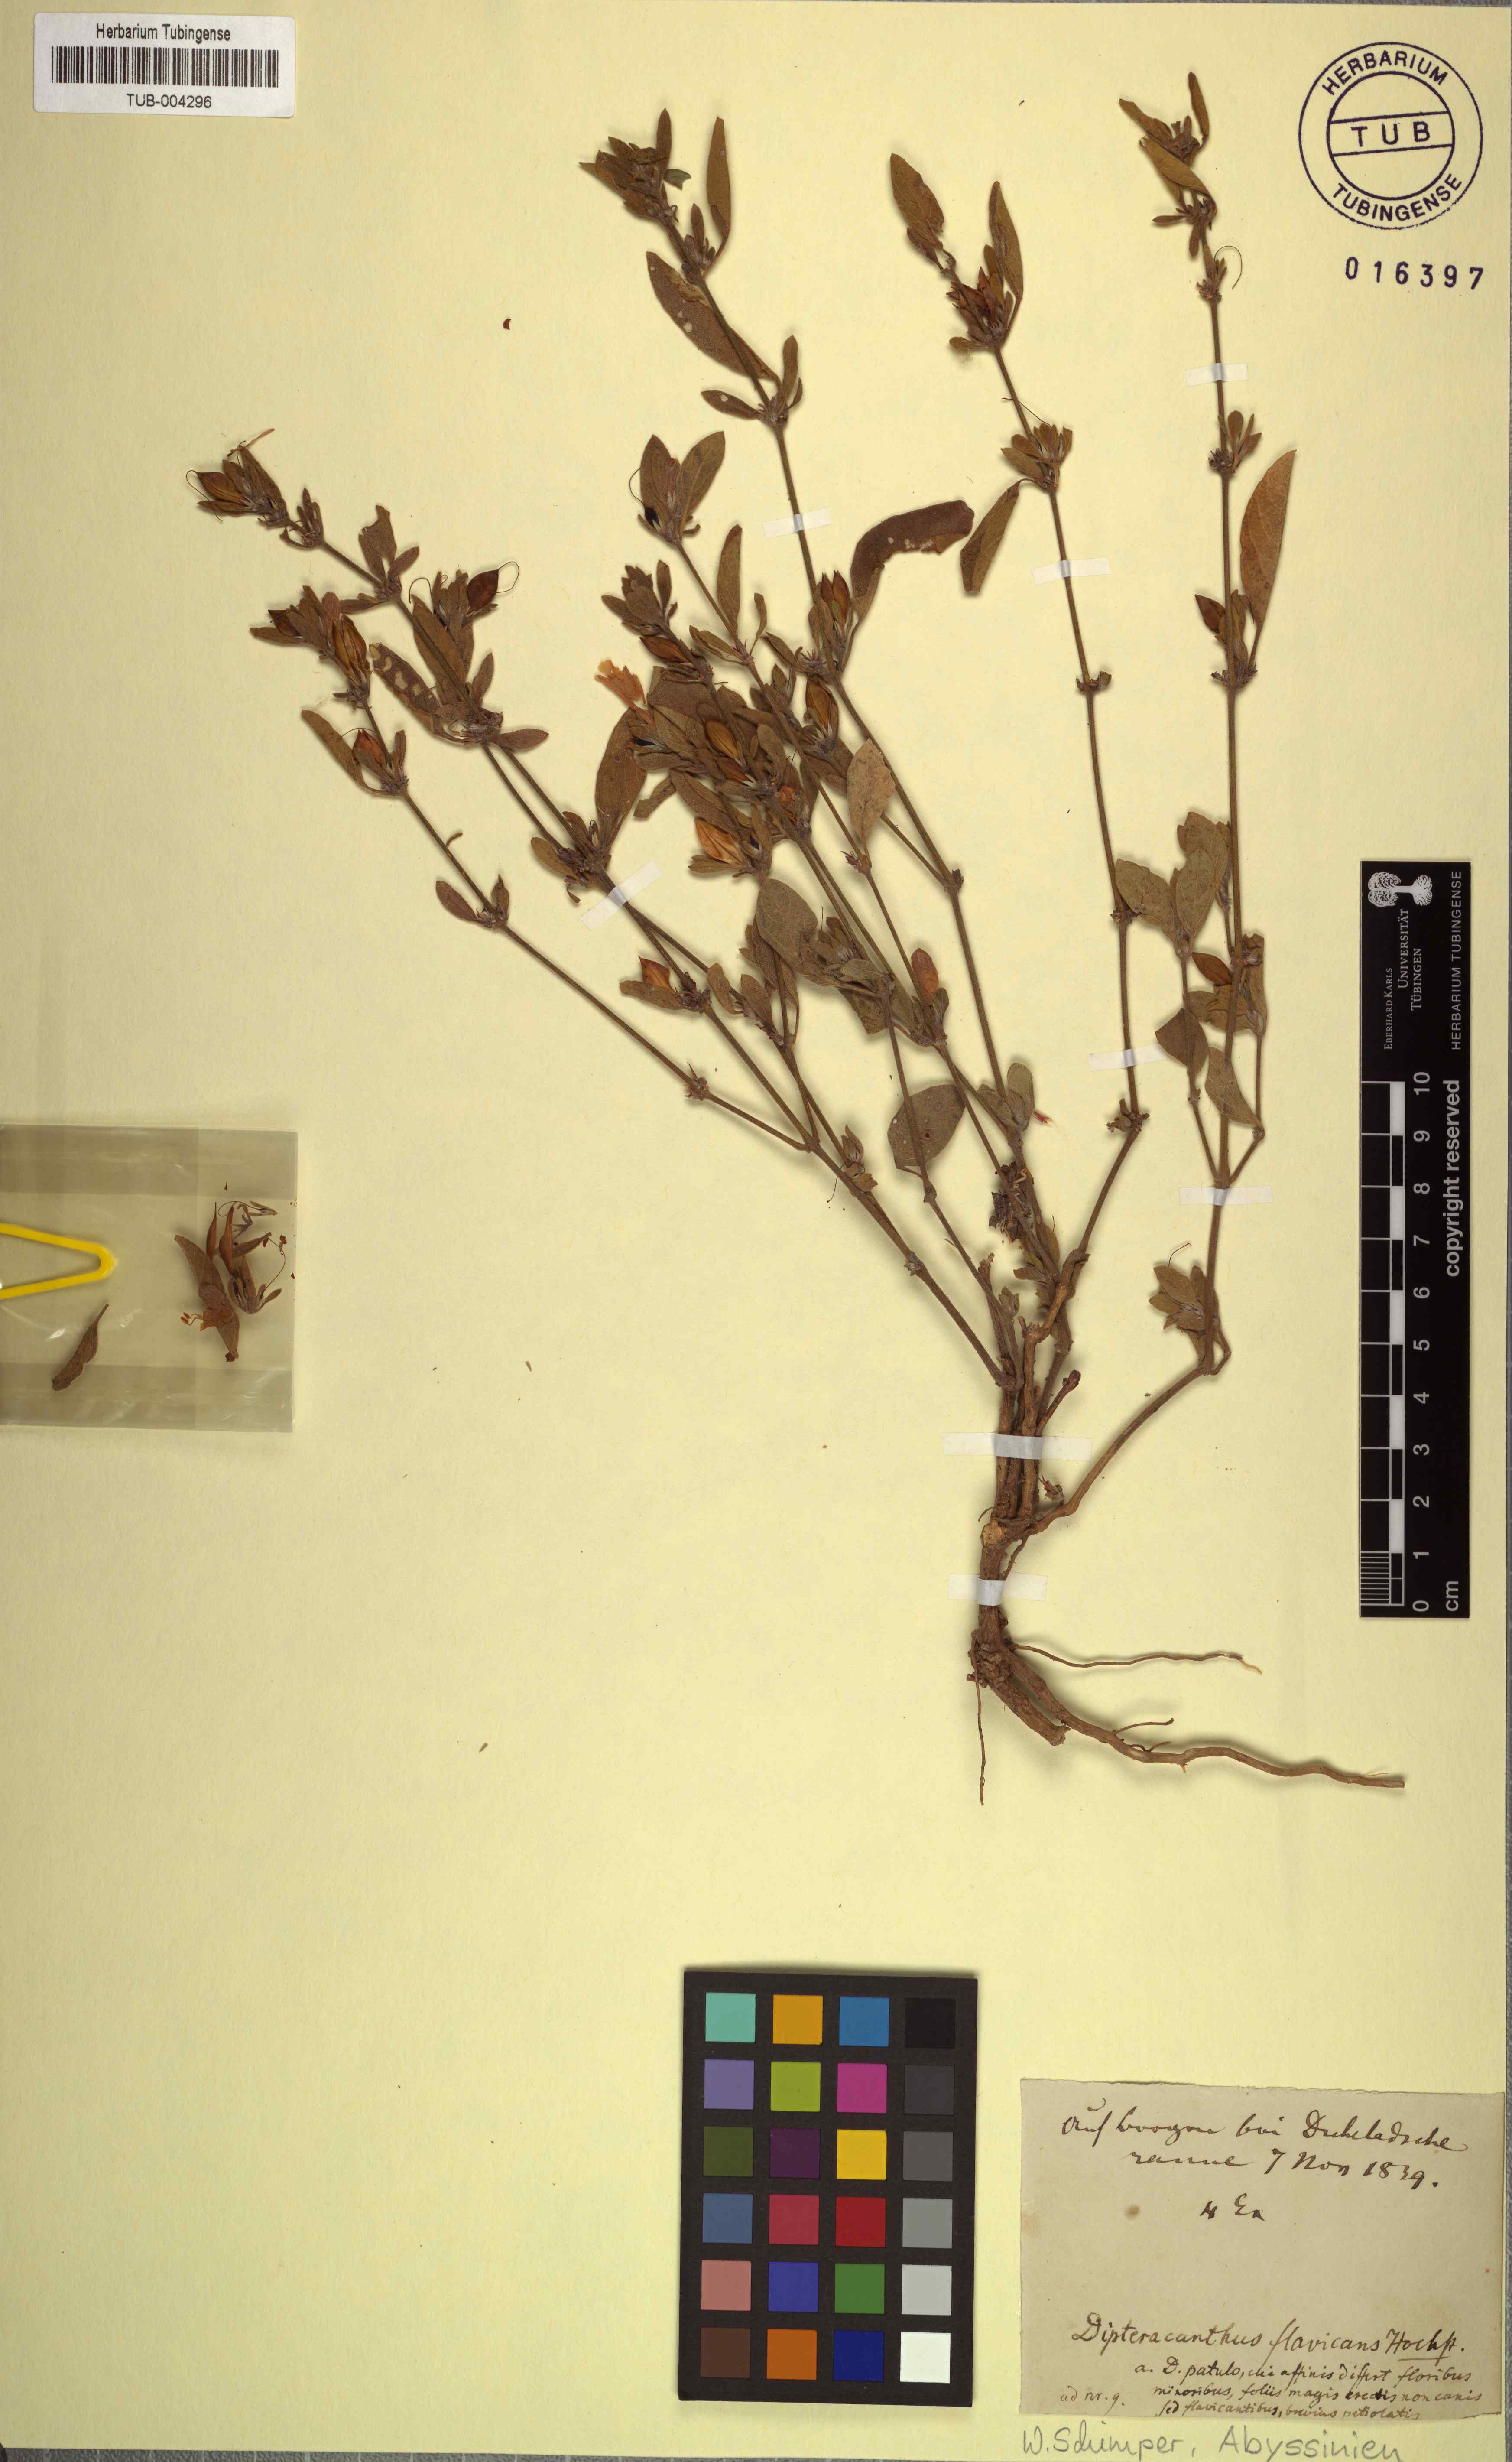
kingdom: Plantae
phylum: Tracheophyta
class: Magnoliopsida
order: Lamiales
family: Acanthaceae
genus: Ruellia
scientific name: Ruellia patula
